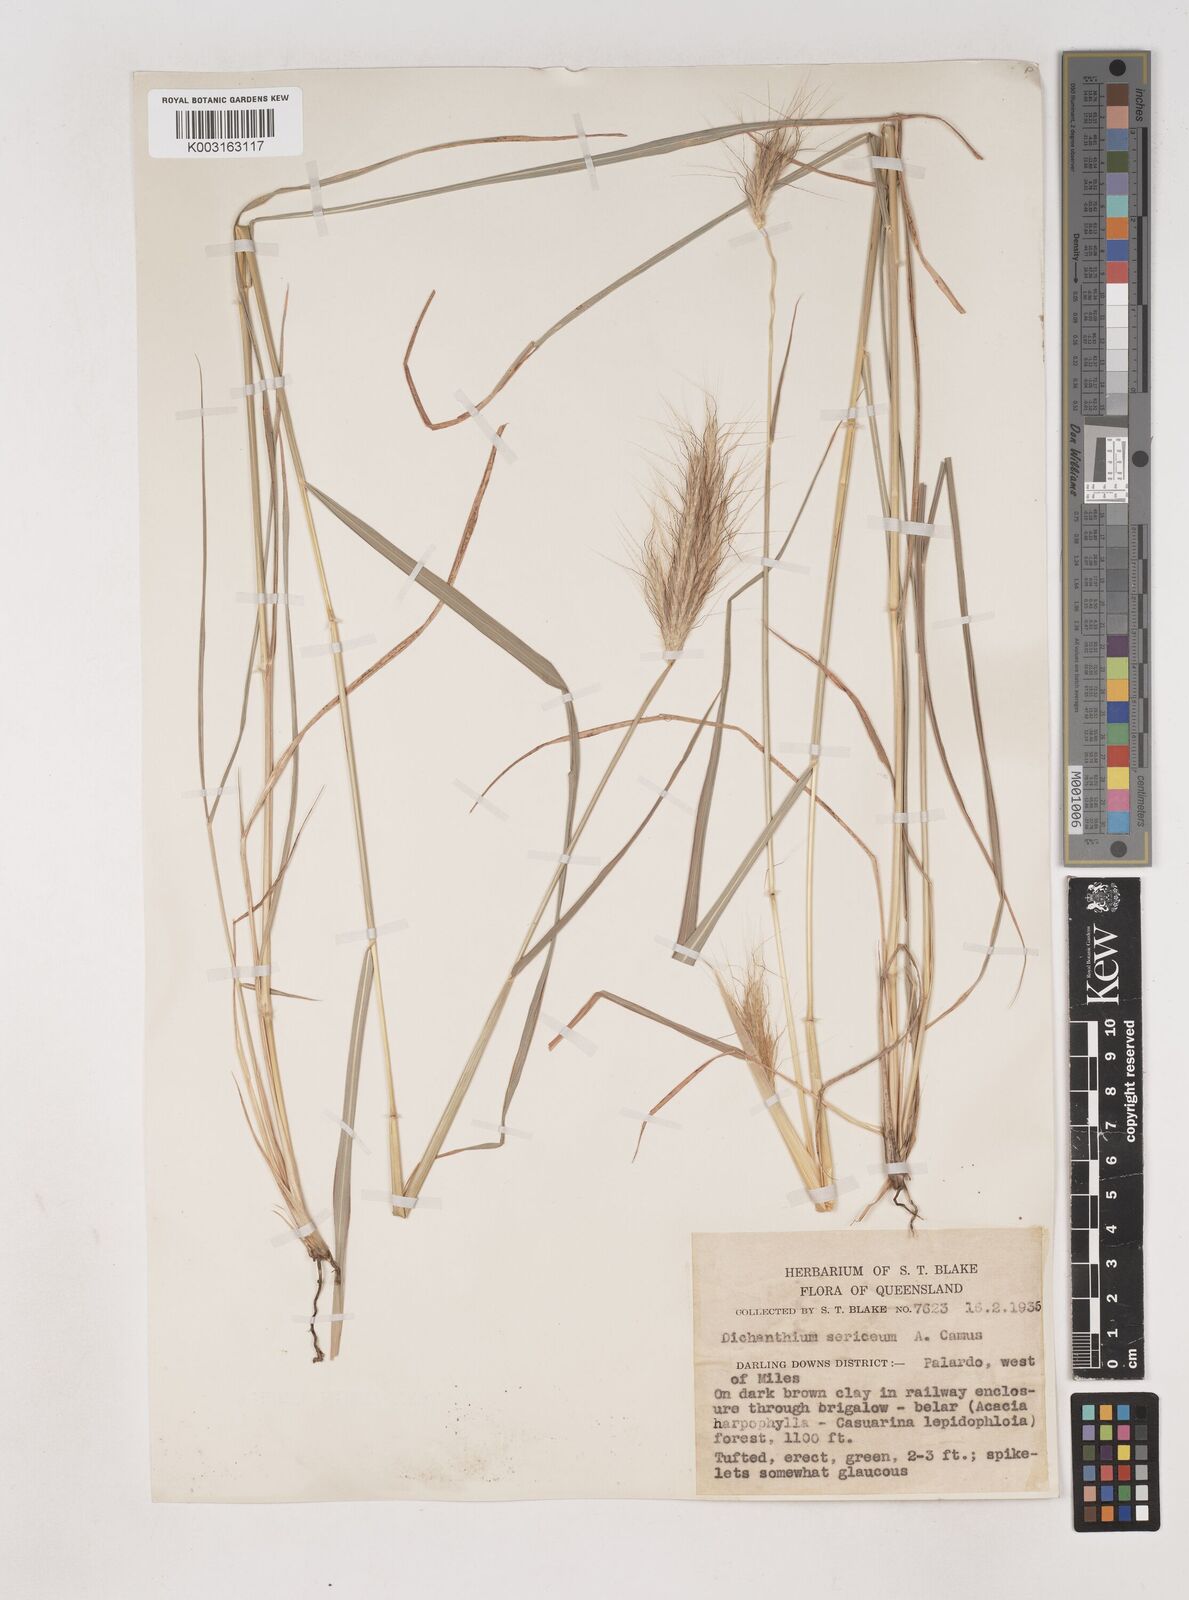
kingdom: Plantae
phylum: Tracheophyta
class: Liliopsida
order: Poales
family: Poaceae
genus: Dichanthium
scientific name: Dichanthium sericeum
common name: Silky bluestem
